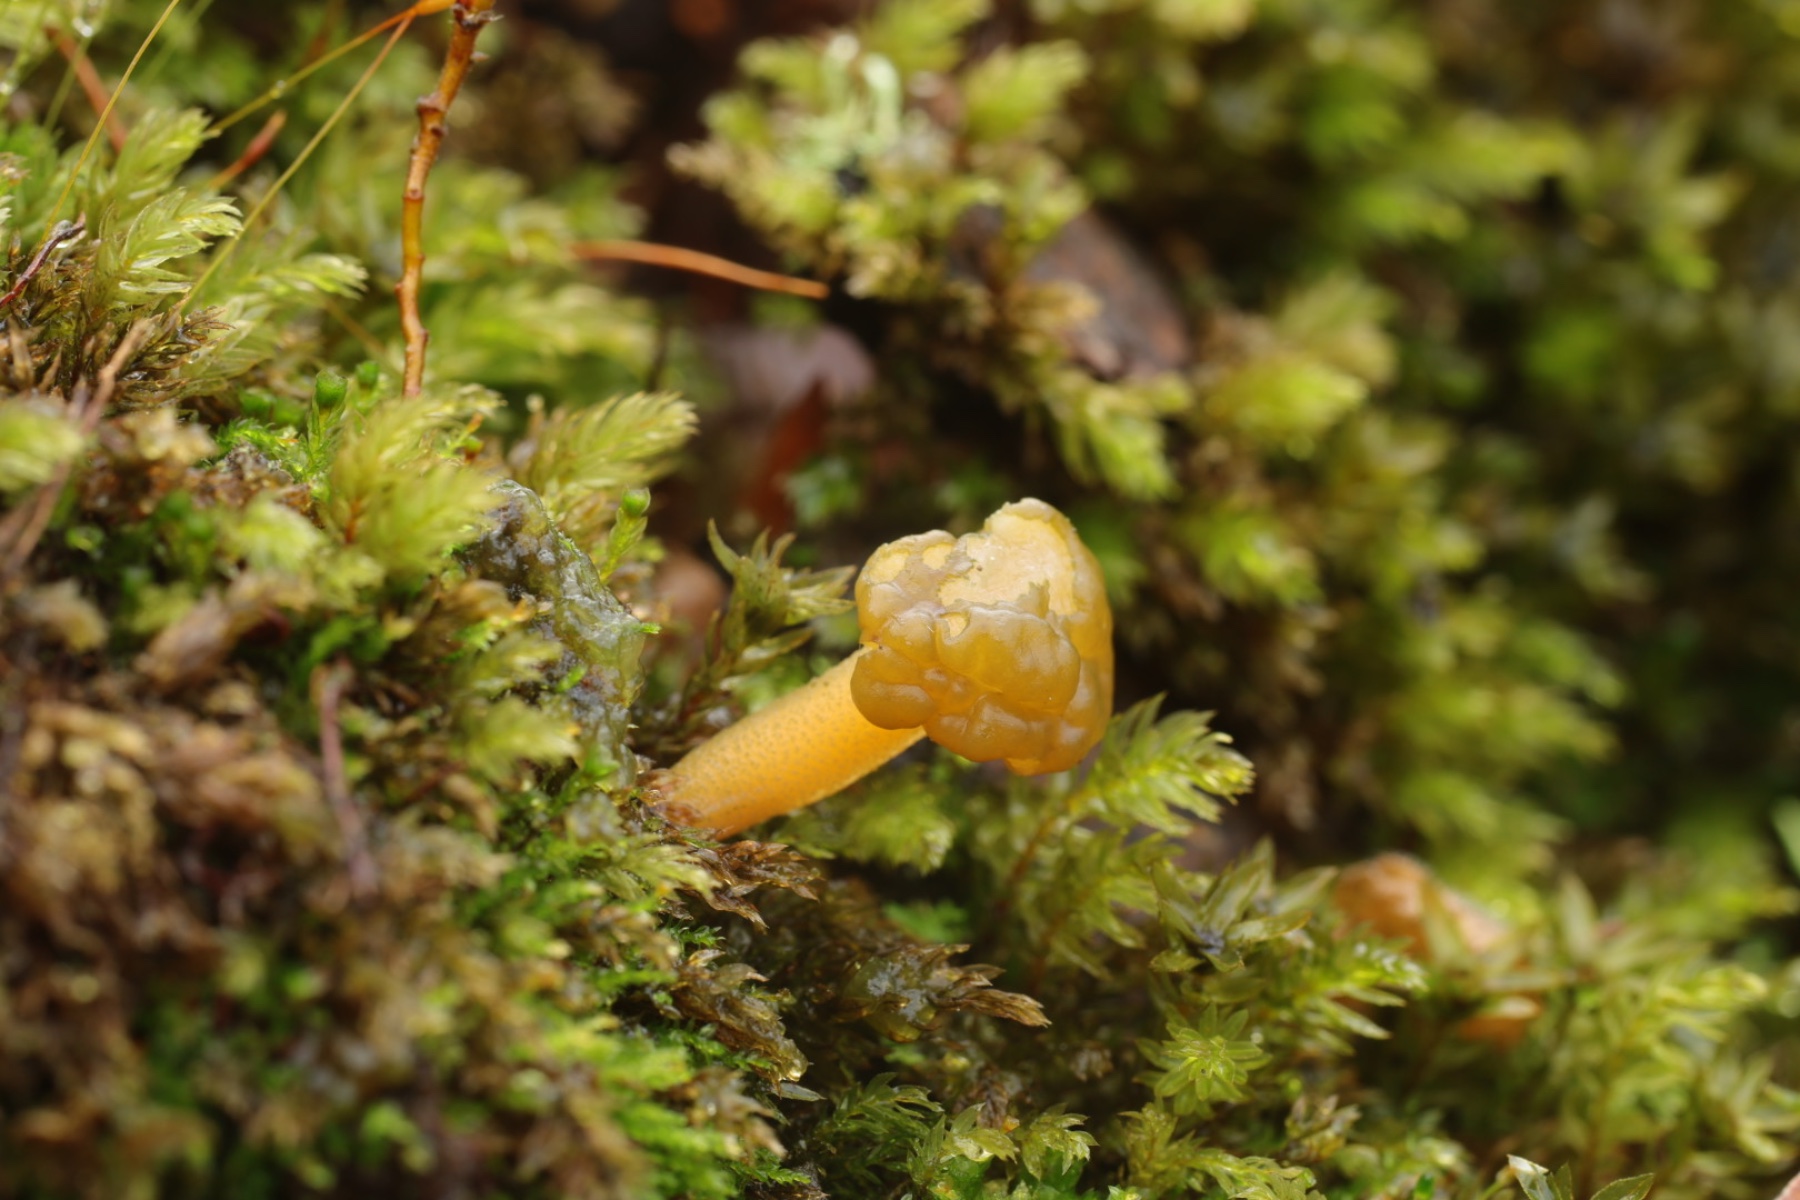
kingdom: Fungi
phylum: Ascomycota
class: Leotiomycetes
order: Leotiales
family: Leotiaceae
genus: Leotia
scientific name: Leotia lubrica
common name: ravsvamp
